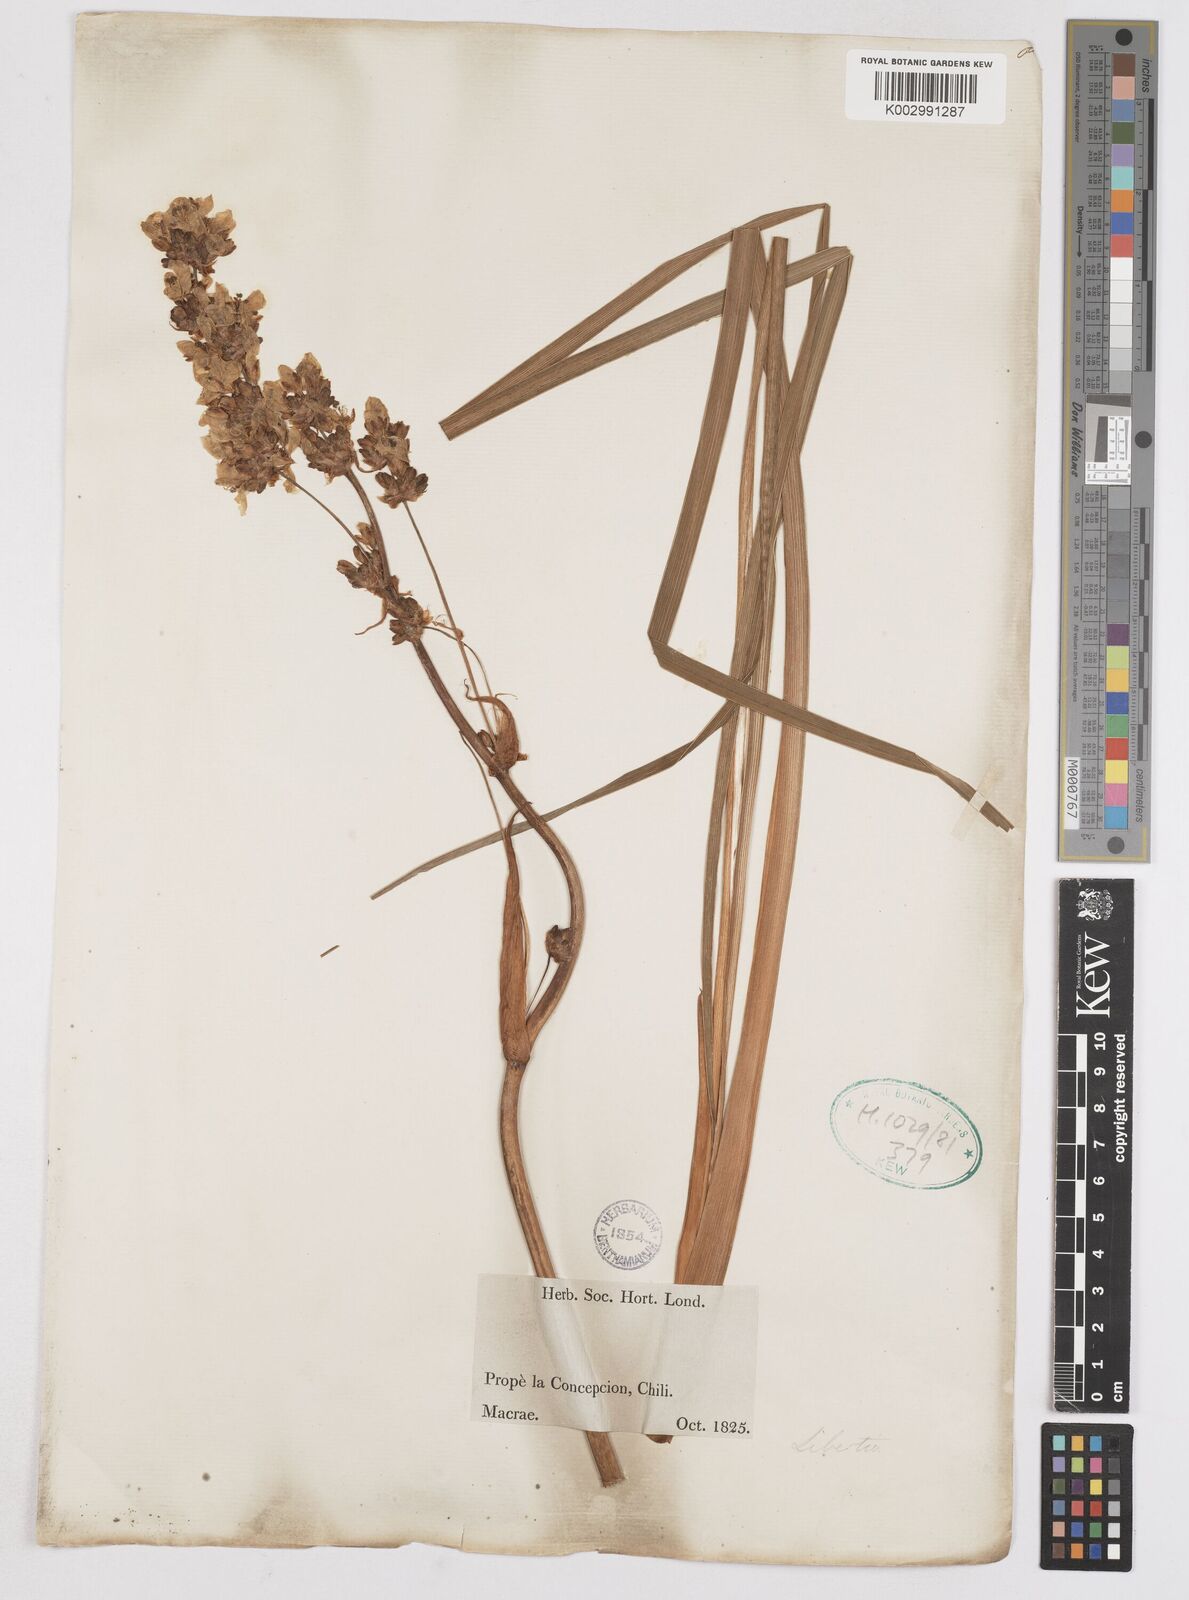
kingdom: Plantae
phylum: Tracheophyta
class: Liliopsida
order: Asparagales
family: Iridaceae
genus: Libertia
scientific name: Libertia
